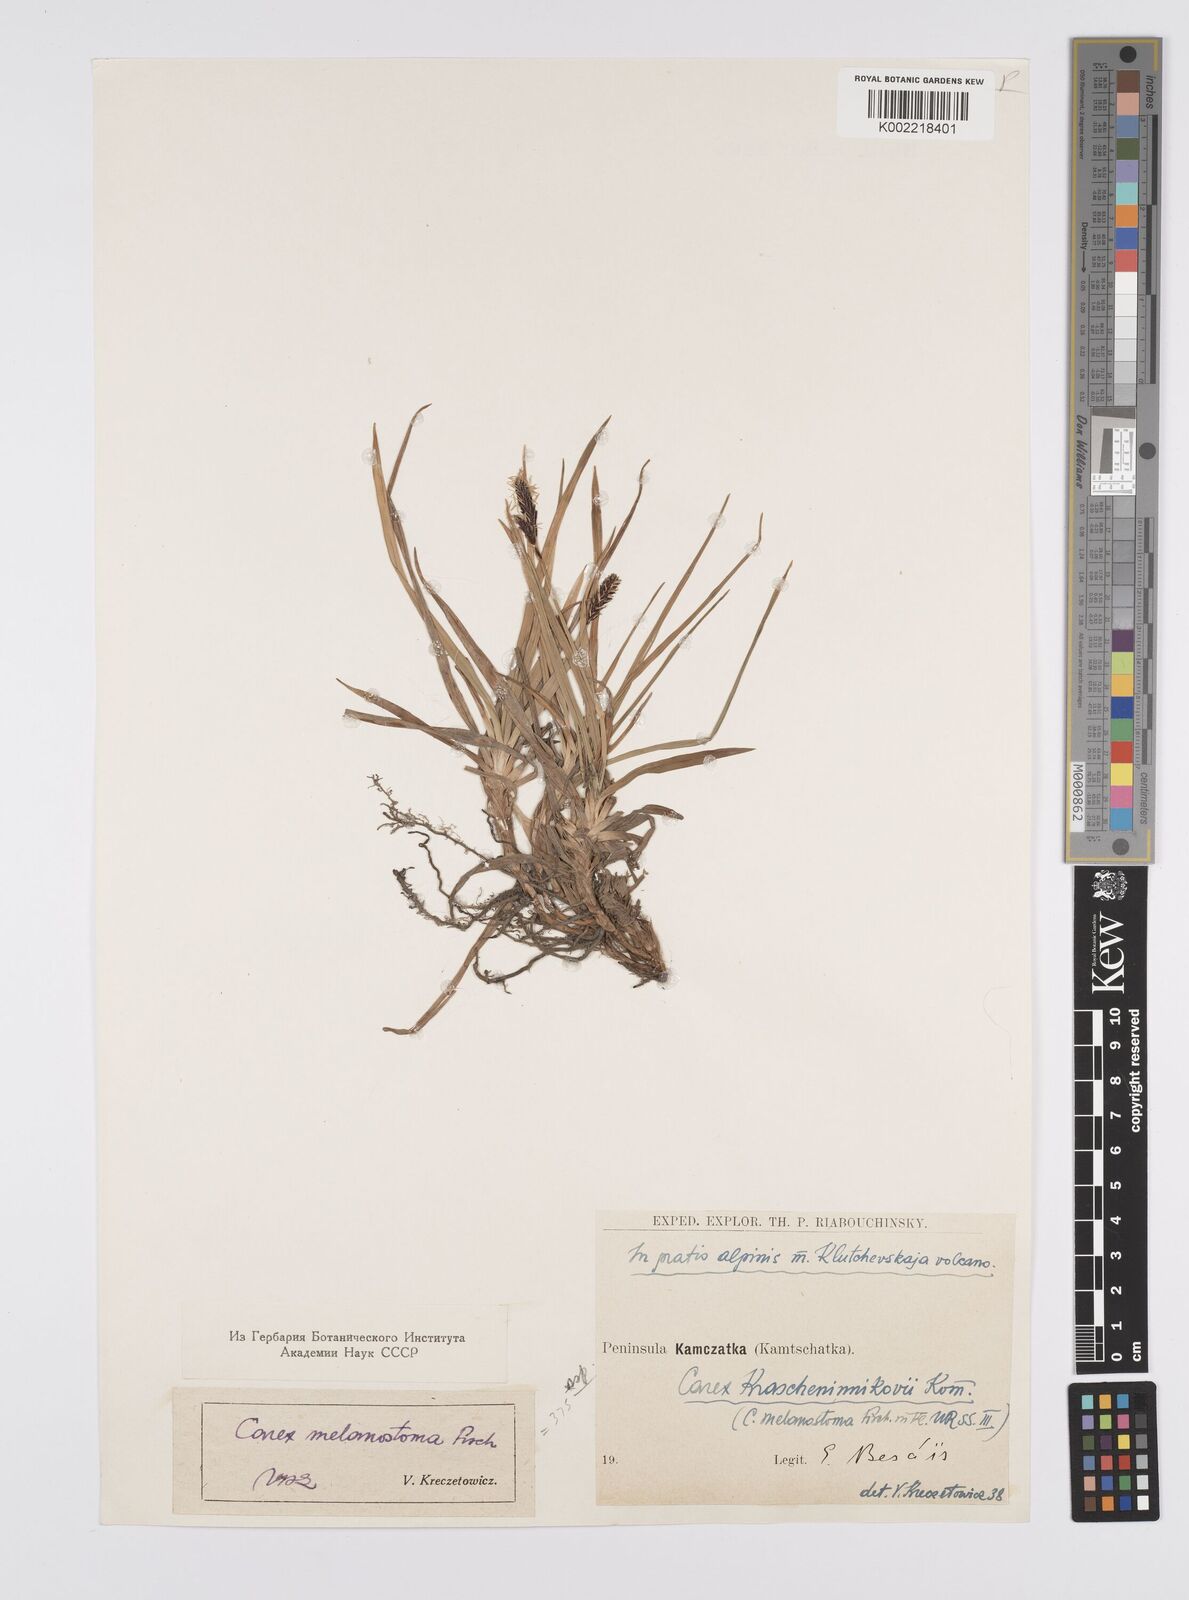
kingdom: Plantae
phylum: Tracheophyta
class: Liliopsida
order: Poales
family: Cyperaceae
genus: Carex
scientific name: Carex spectabilis
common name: Northwestern showy sedge
